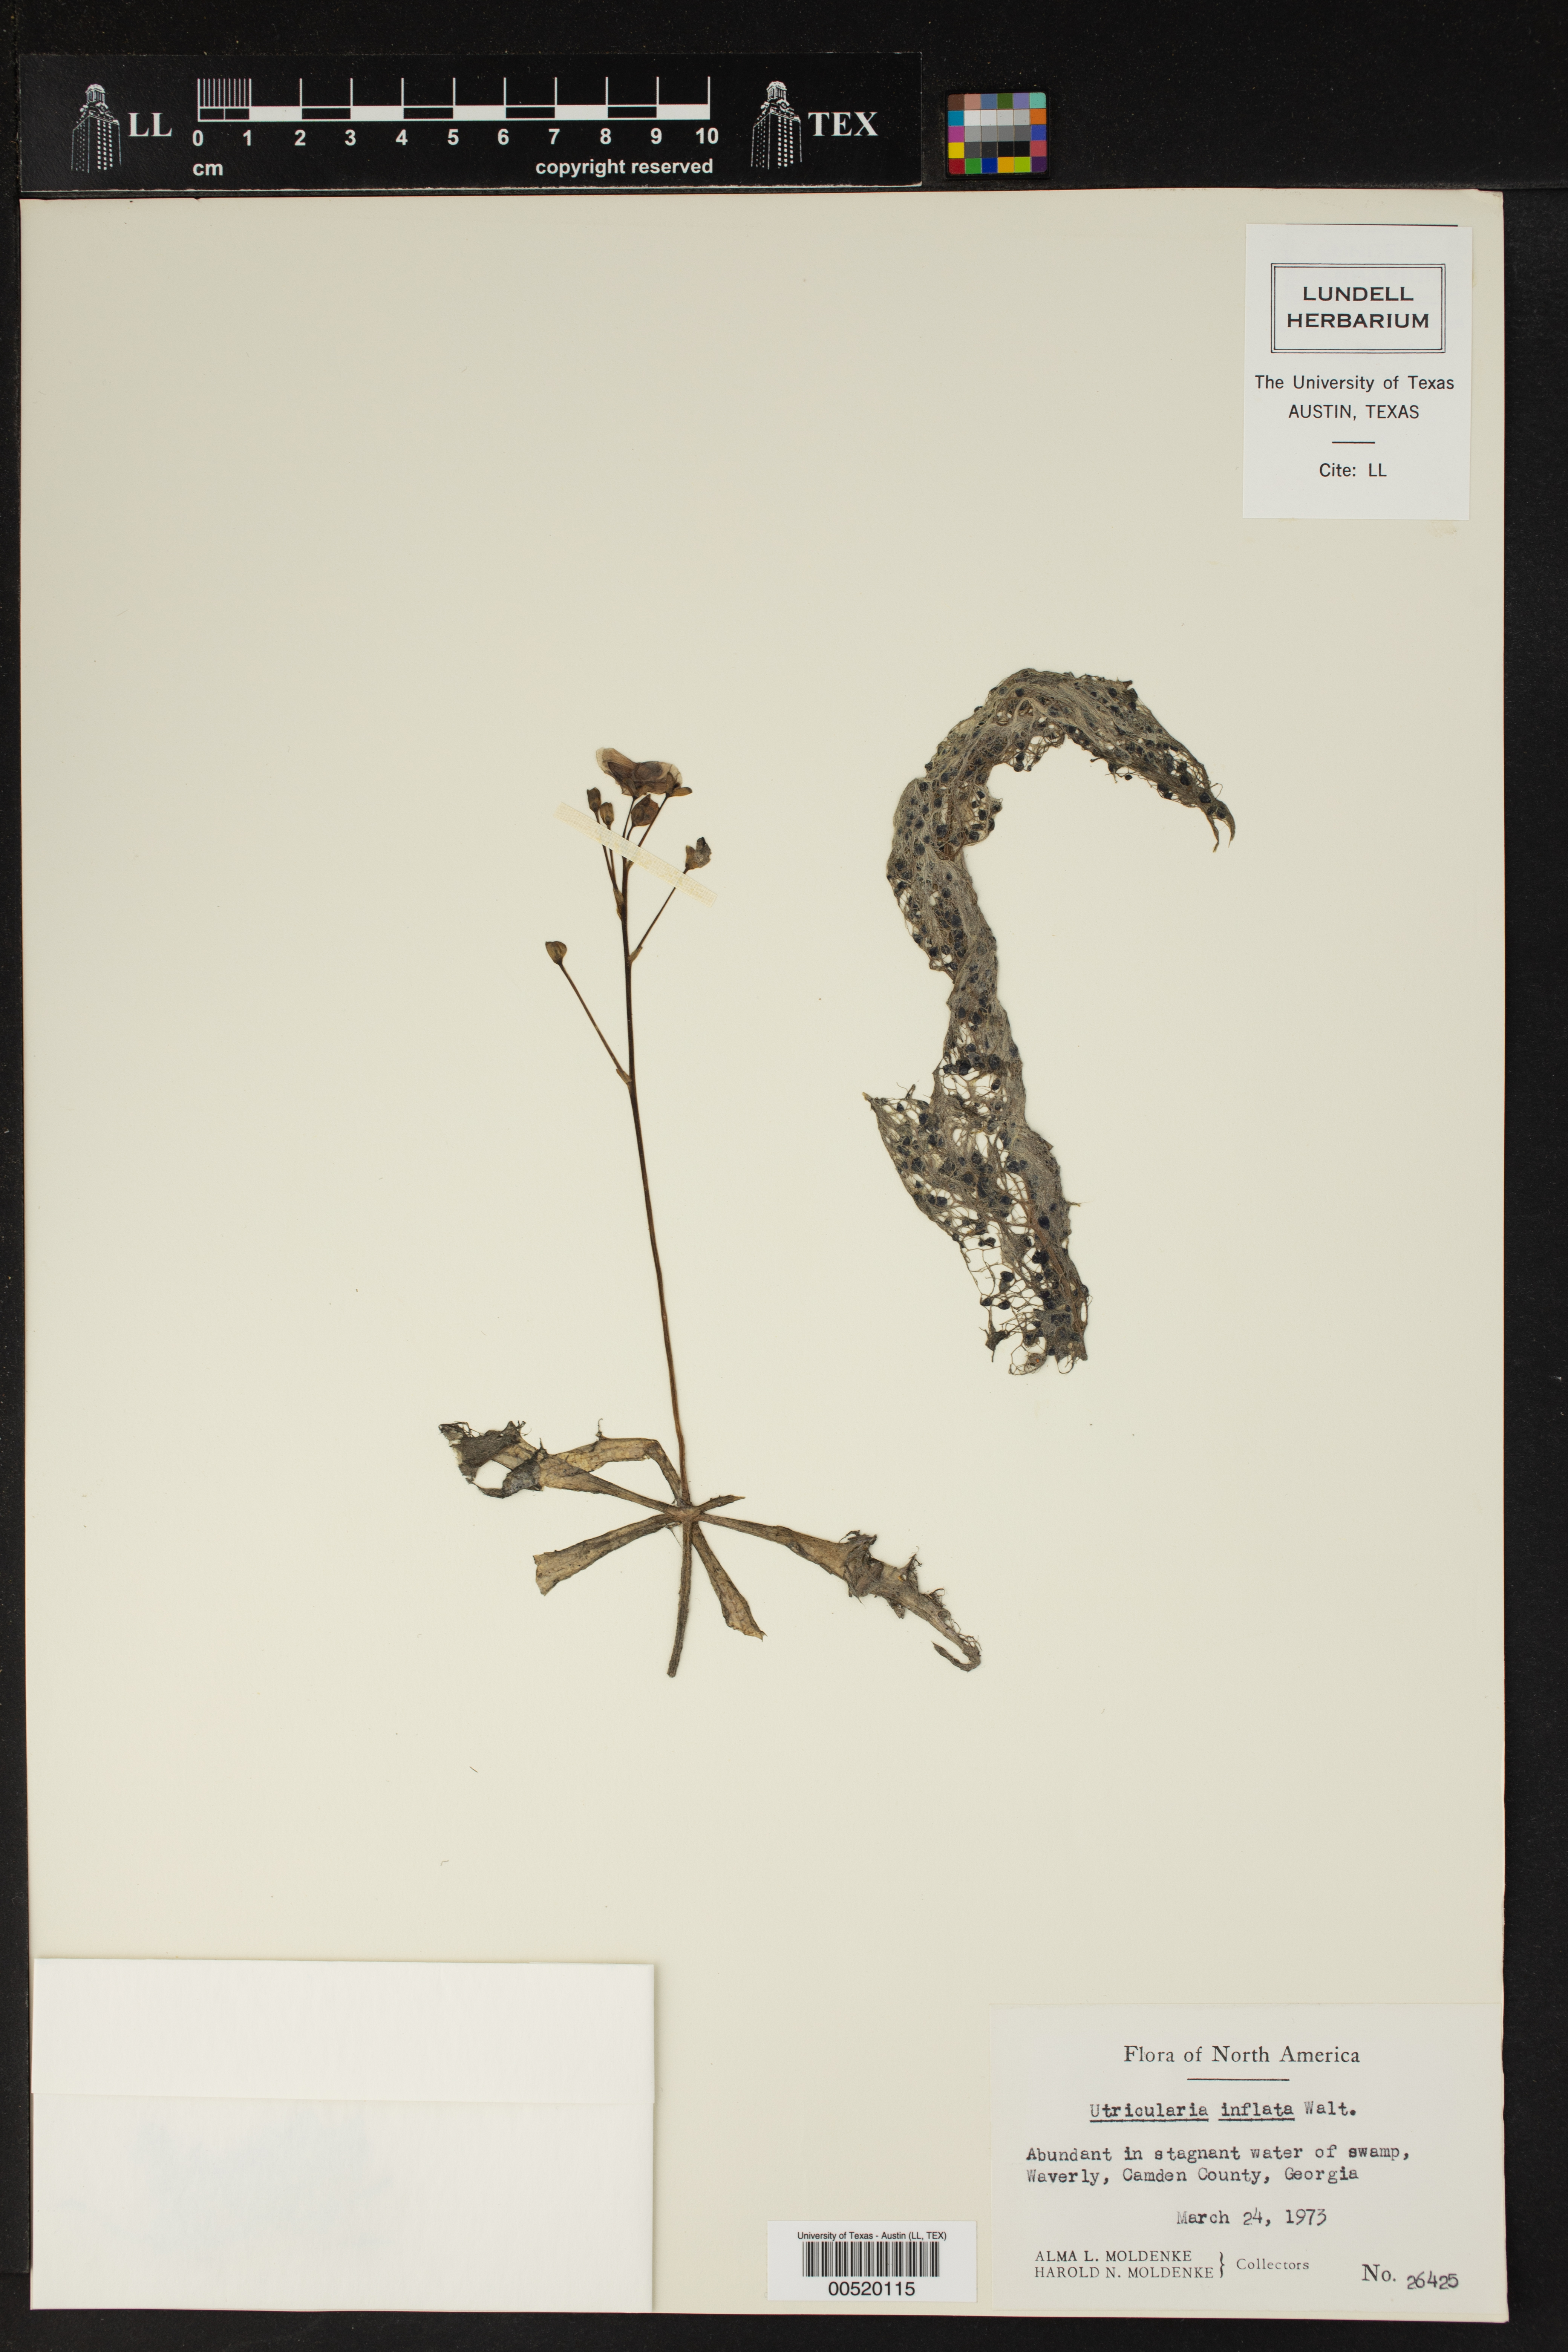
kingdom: Plantae
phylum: Tracheophyta
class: Magnoliopsida
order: Lamiales
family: Lentibulariaceae
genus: Utricularia
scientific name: Utricularia inflata
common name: Floating bladderwort
